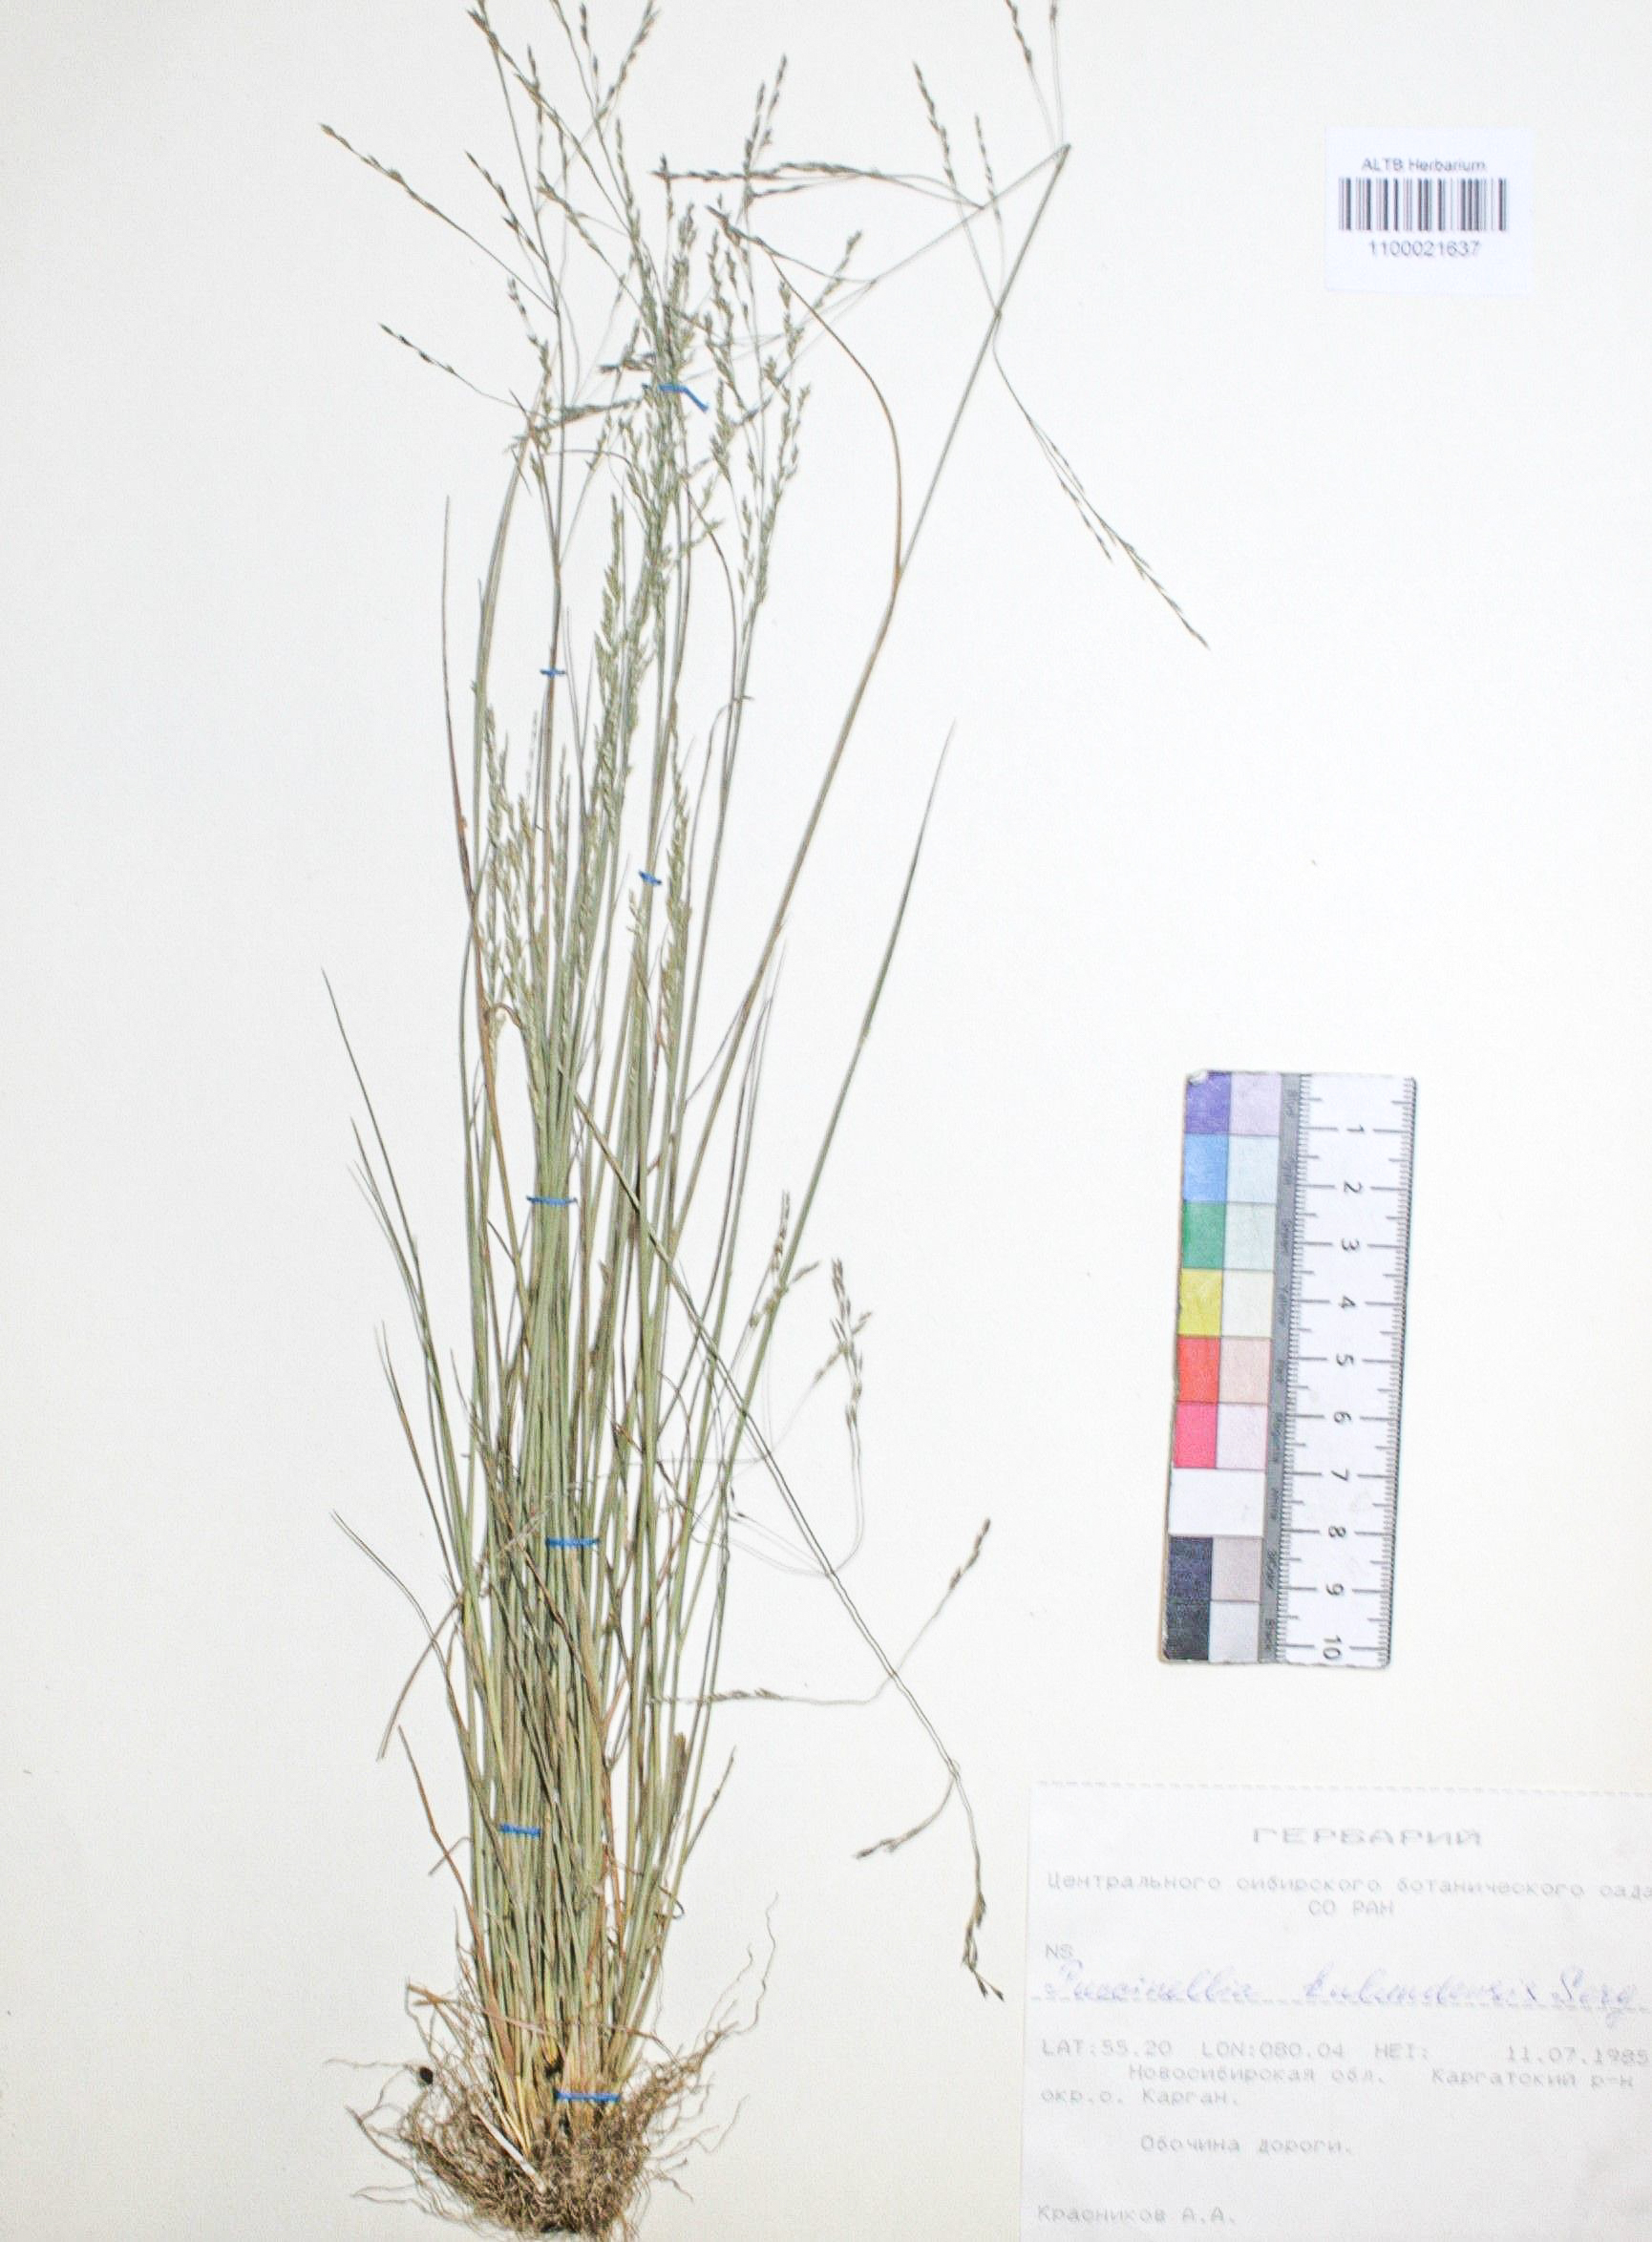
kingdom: Plantae
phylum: Tracheophyta
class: Liliopsida
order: Poales
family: Poaceae
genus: Puccinellia
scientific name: Puccinellia manchuriensis
